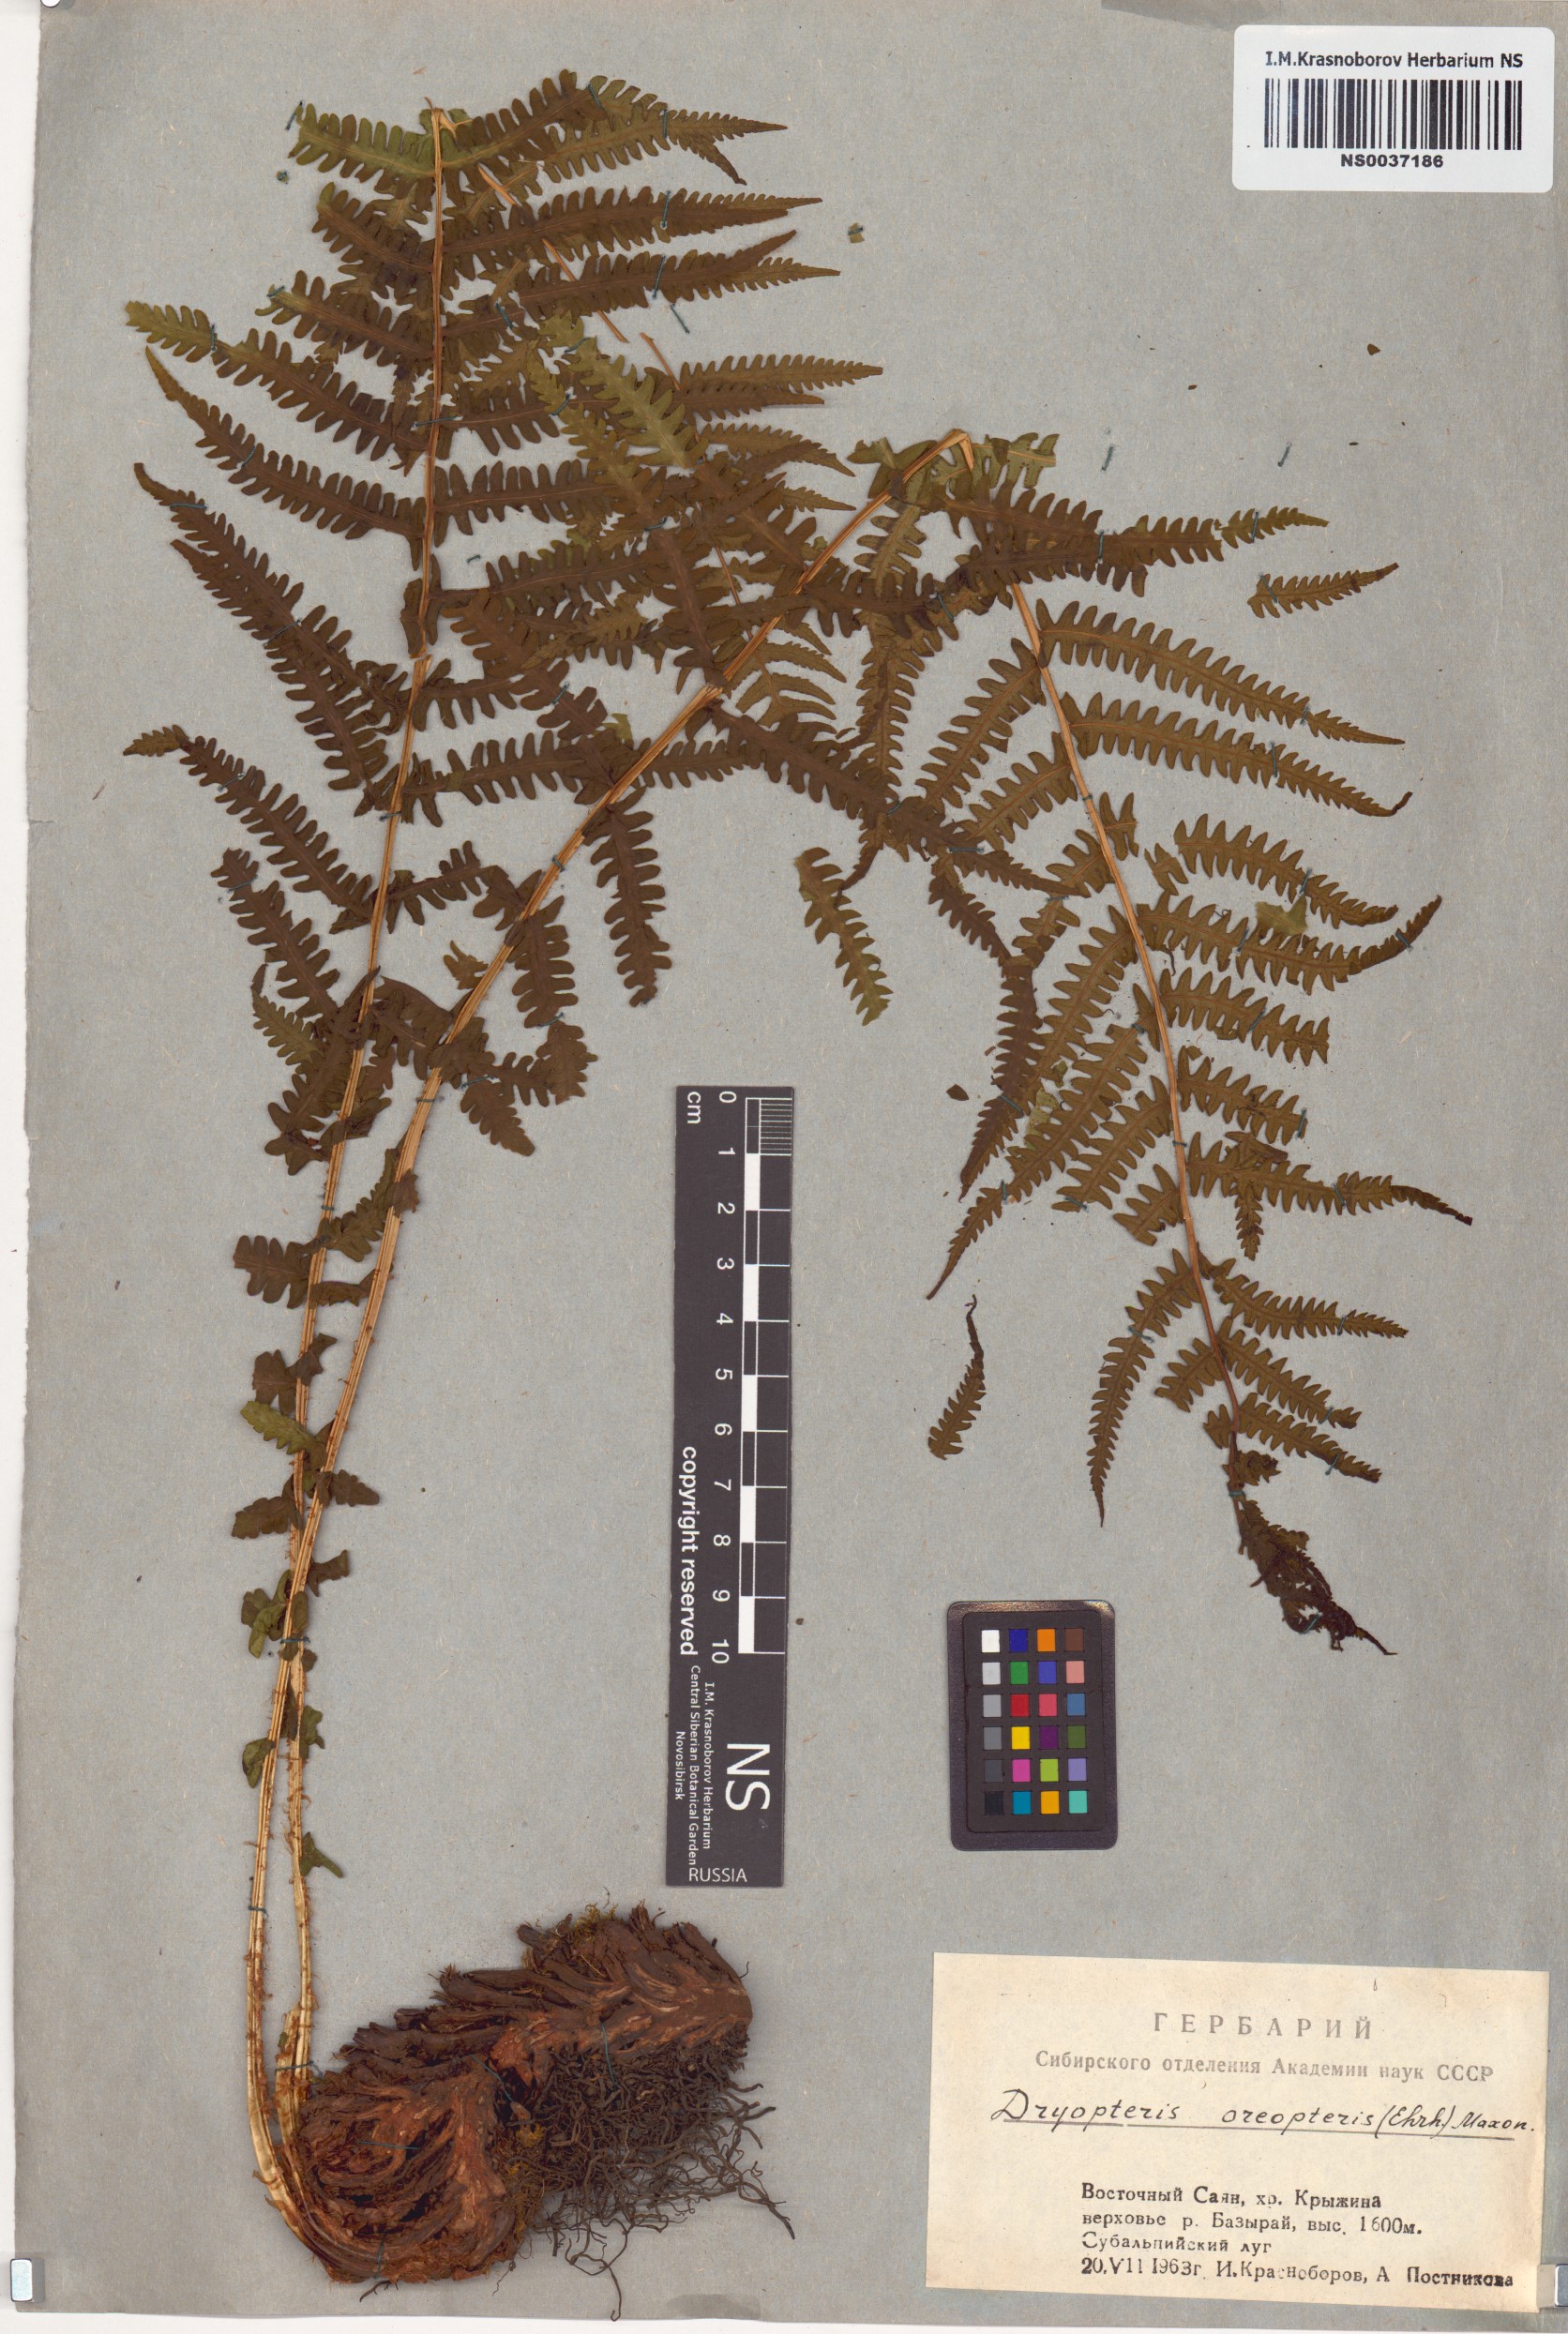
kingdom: Plantae
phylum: Tracheophyta
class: Polypodiopsida
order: Polypodiales
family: Thelypteridaceae
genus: Oreopteris
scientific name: Oreopteris limbosperma
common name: Lemon-scented fern
